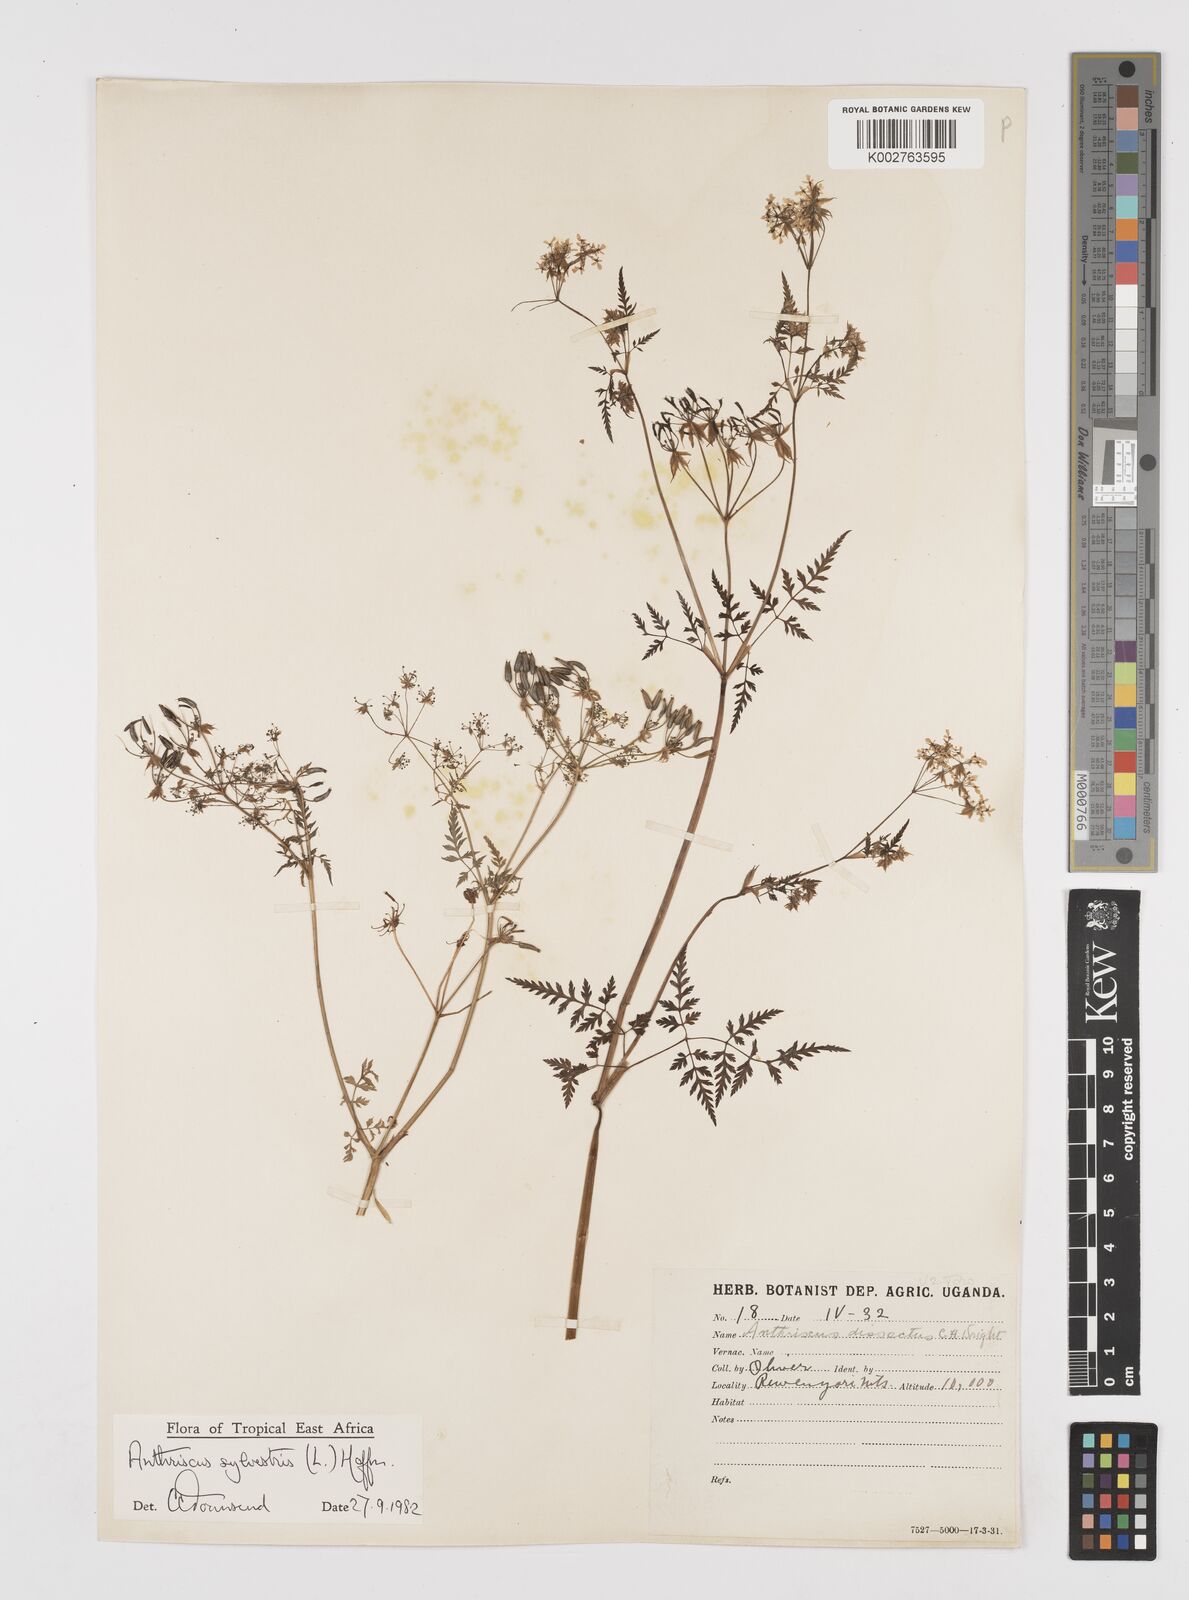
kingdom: Plantae
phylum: Tracheophyta
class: Magnoliopsida
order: Apiales
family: Apiaceae
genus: Anthriscus
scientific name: Anthriscus sylvestris
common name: Cow parsley
